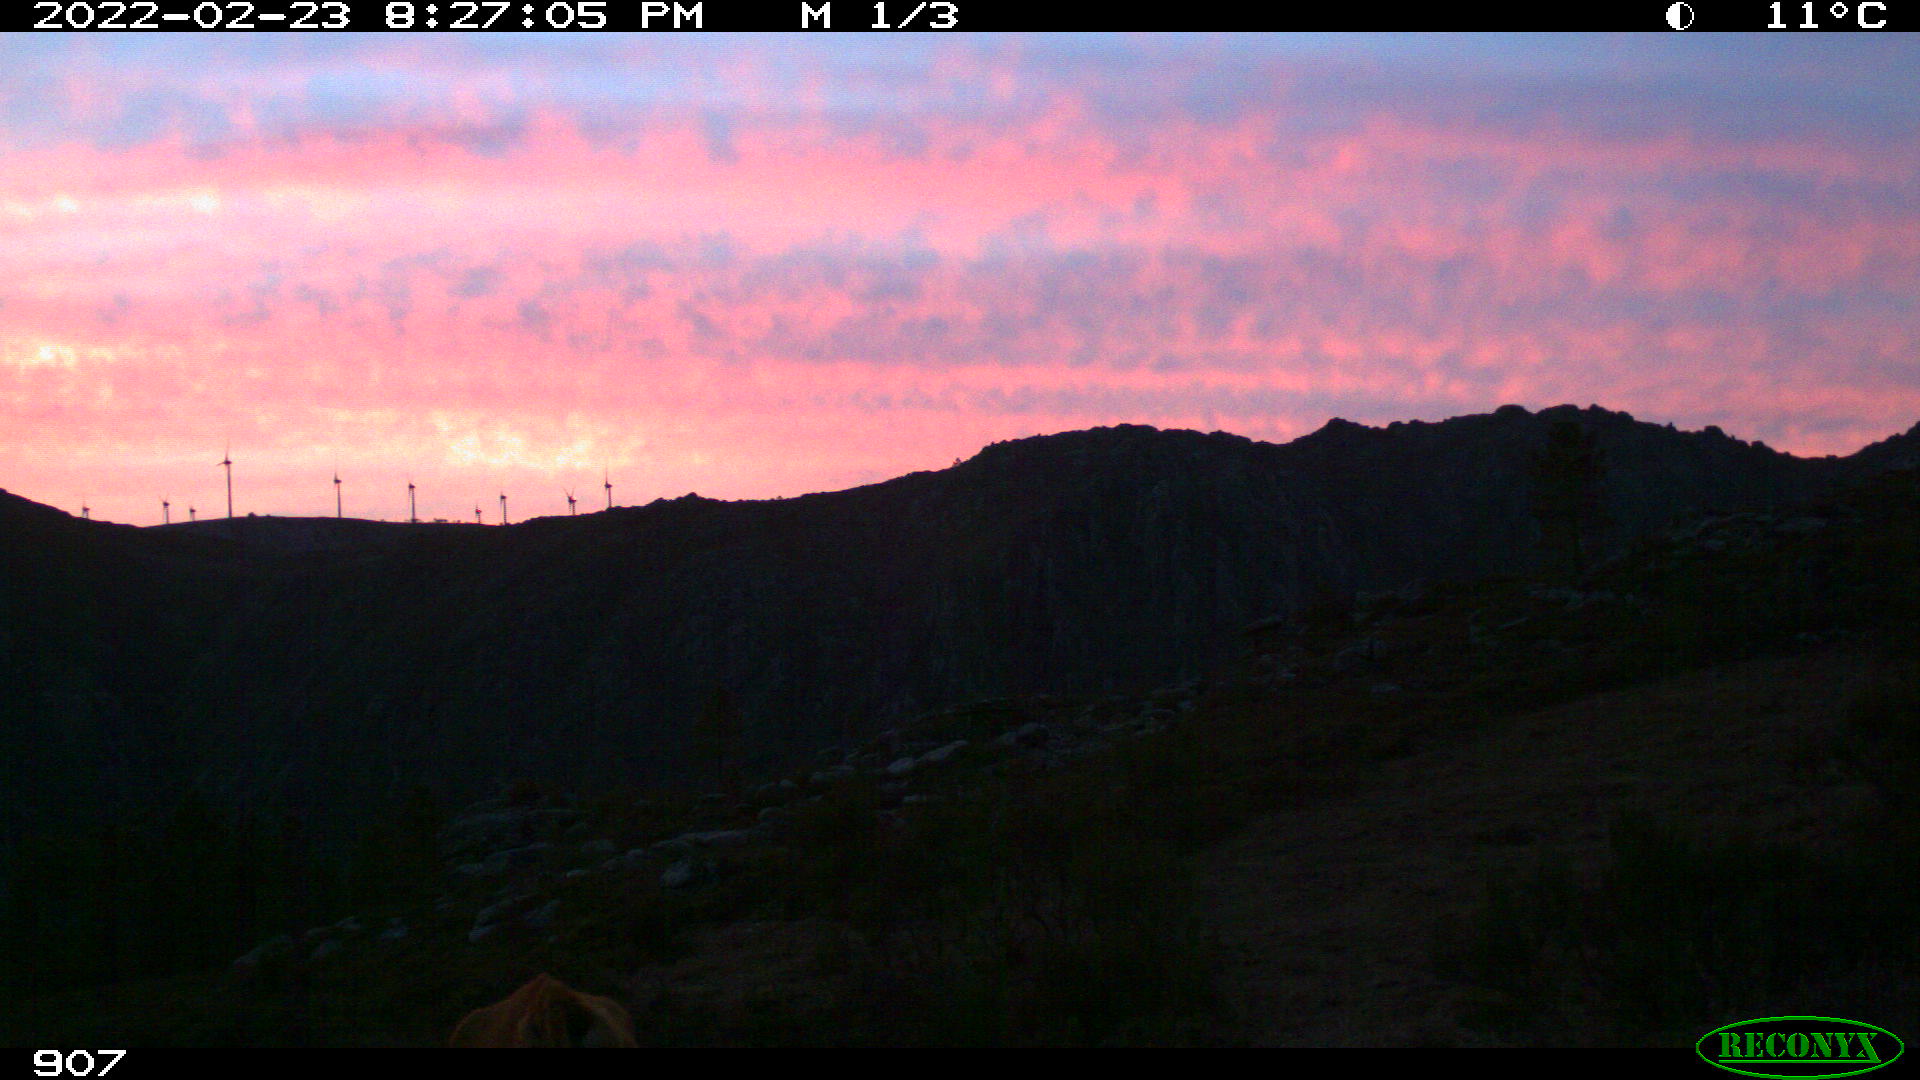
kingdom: Animalia
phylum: Chordata
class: Mammalia
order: Artiodactyla
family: Bovidae
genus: Bos
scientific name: Bos taurus
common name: Domesticated cattle
